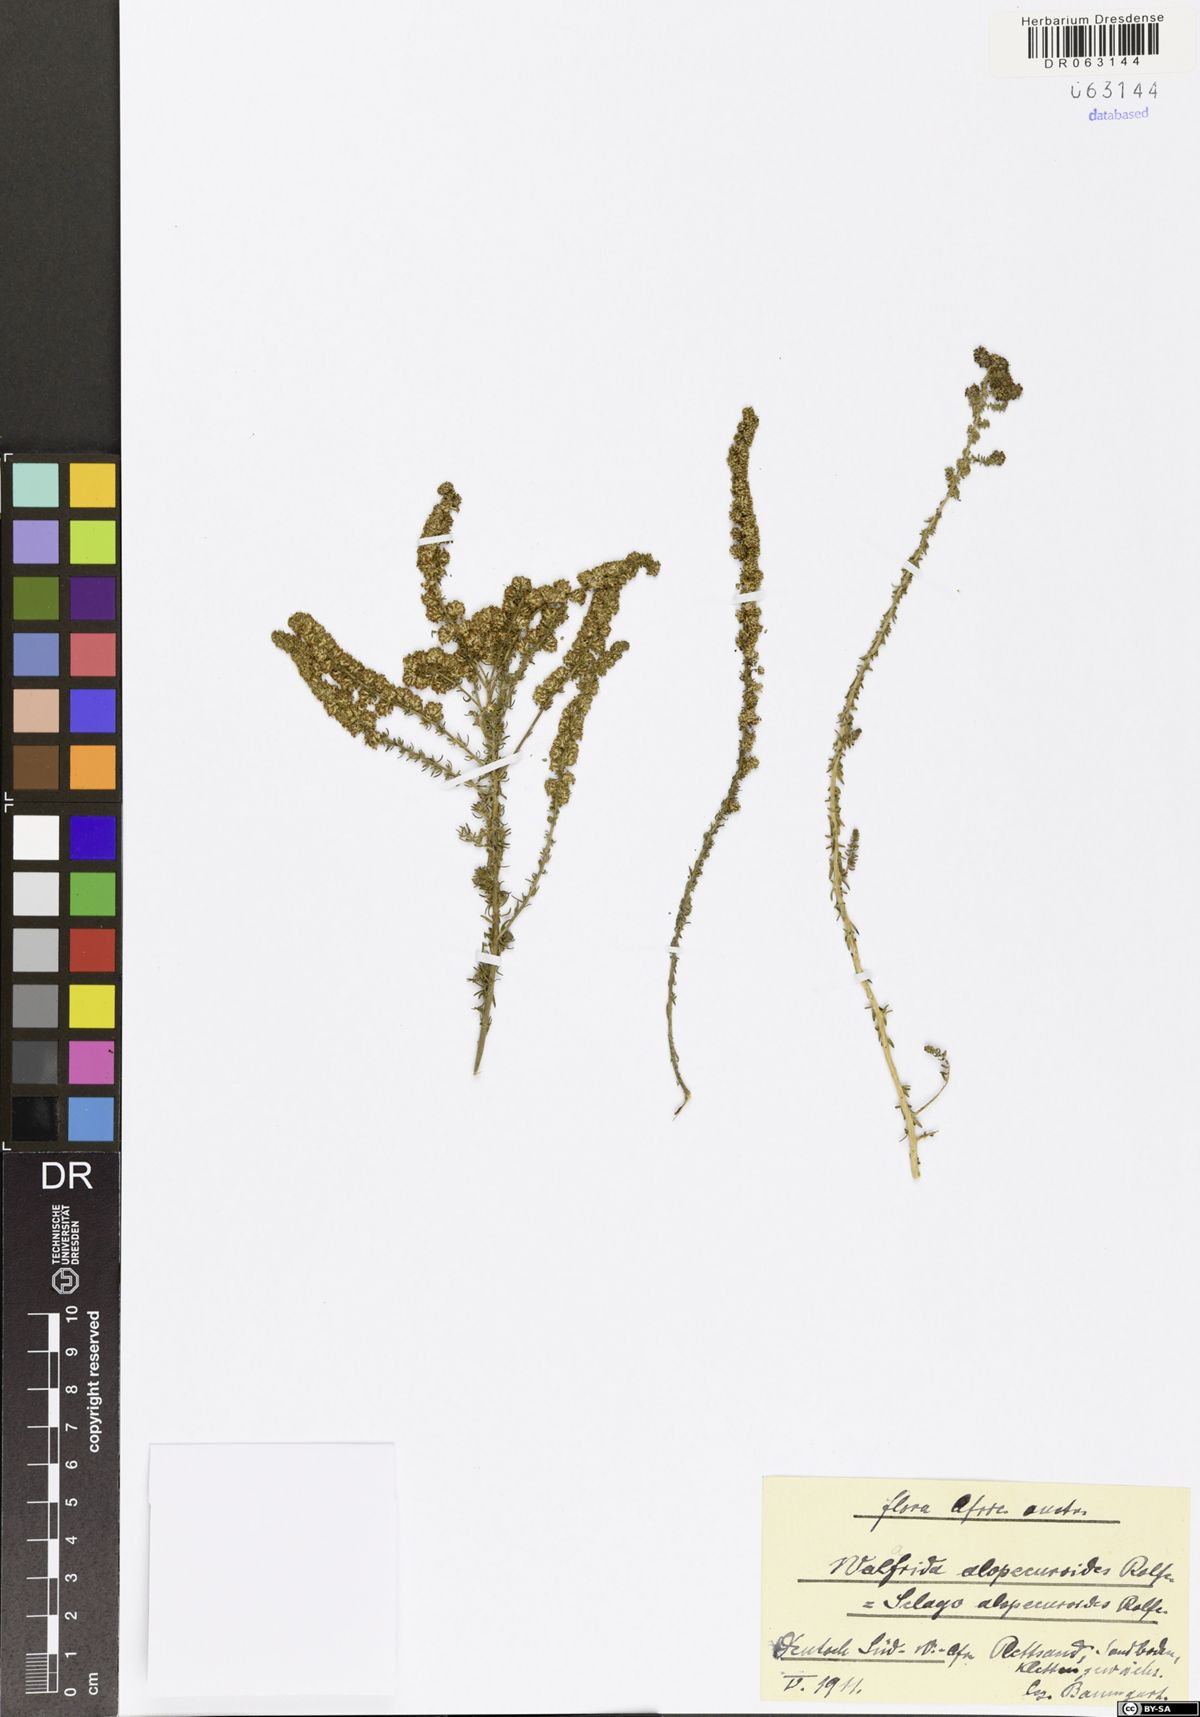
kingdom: Plantae
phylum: Tracheophyta
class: Magnoliopsida
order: Lamiales
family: Scrophulariaceae
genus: Selago
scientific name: Selago alopecuroides
